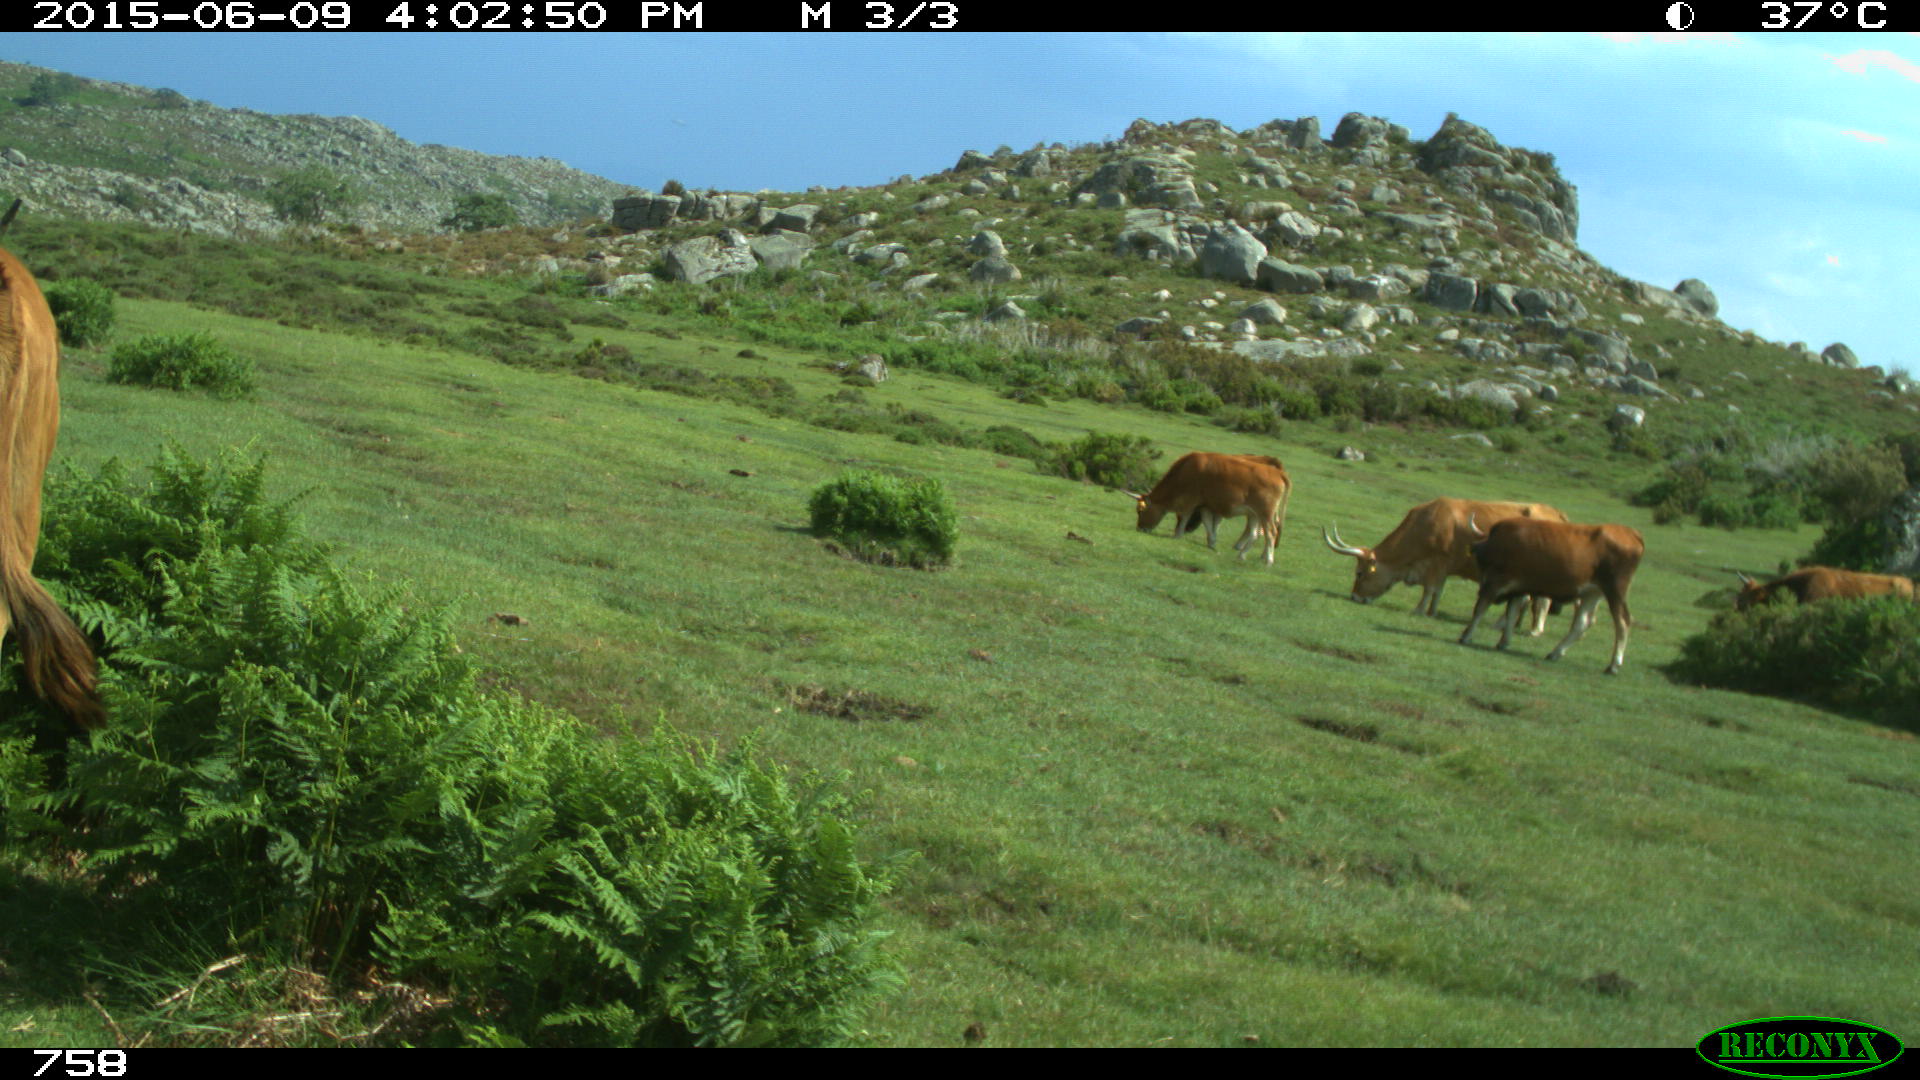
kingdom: Animalia
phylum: Chordata
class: Mammalia
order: Artiodactyla
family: Bovidae
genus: Bos
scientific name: Bos taurus
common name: Domesticated cattle
